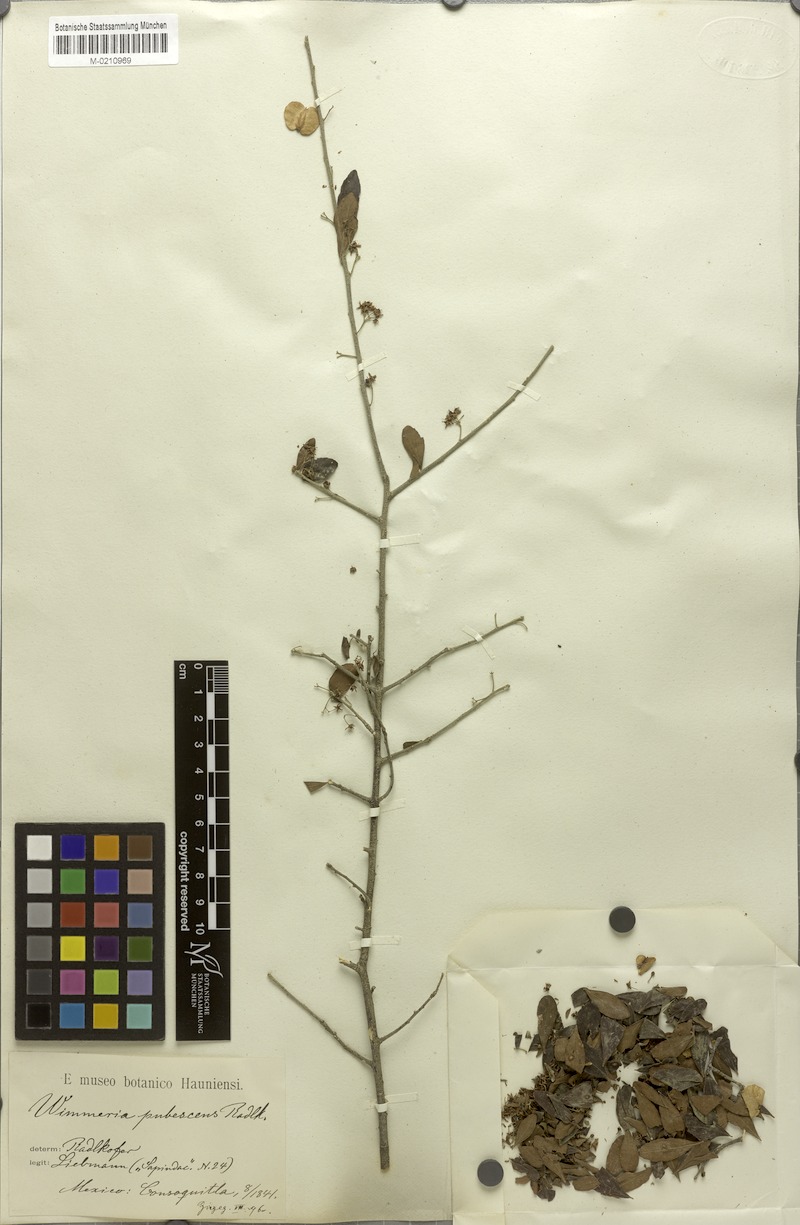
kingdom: Plantae
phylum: Tracheophyta
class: Magnoliopsida
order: Celastrales
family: Celastraceae
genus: Wimmeria
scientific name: Wimmeria pubescens
